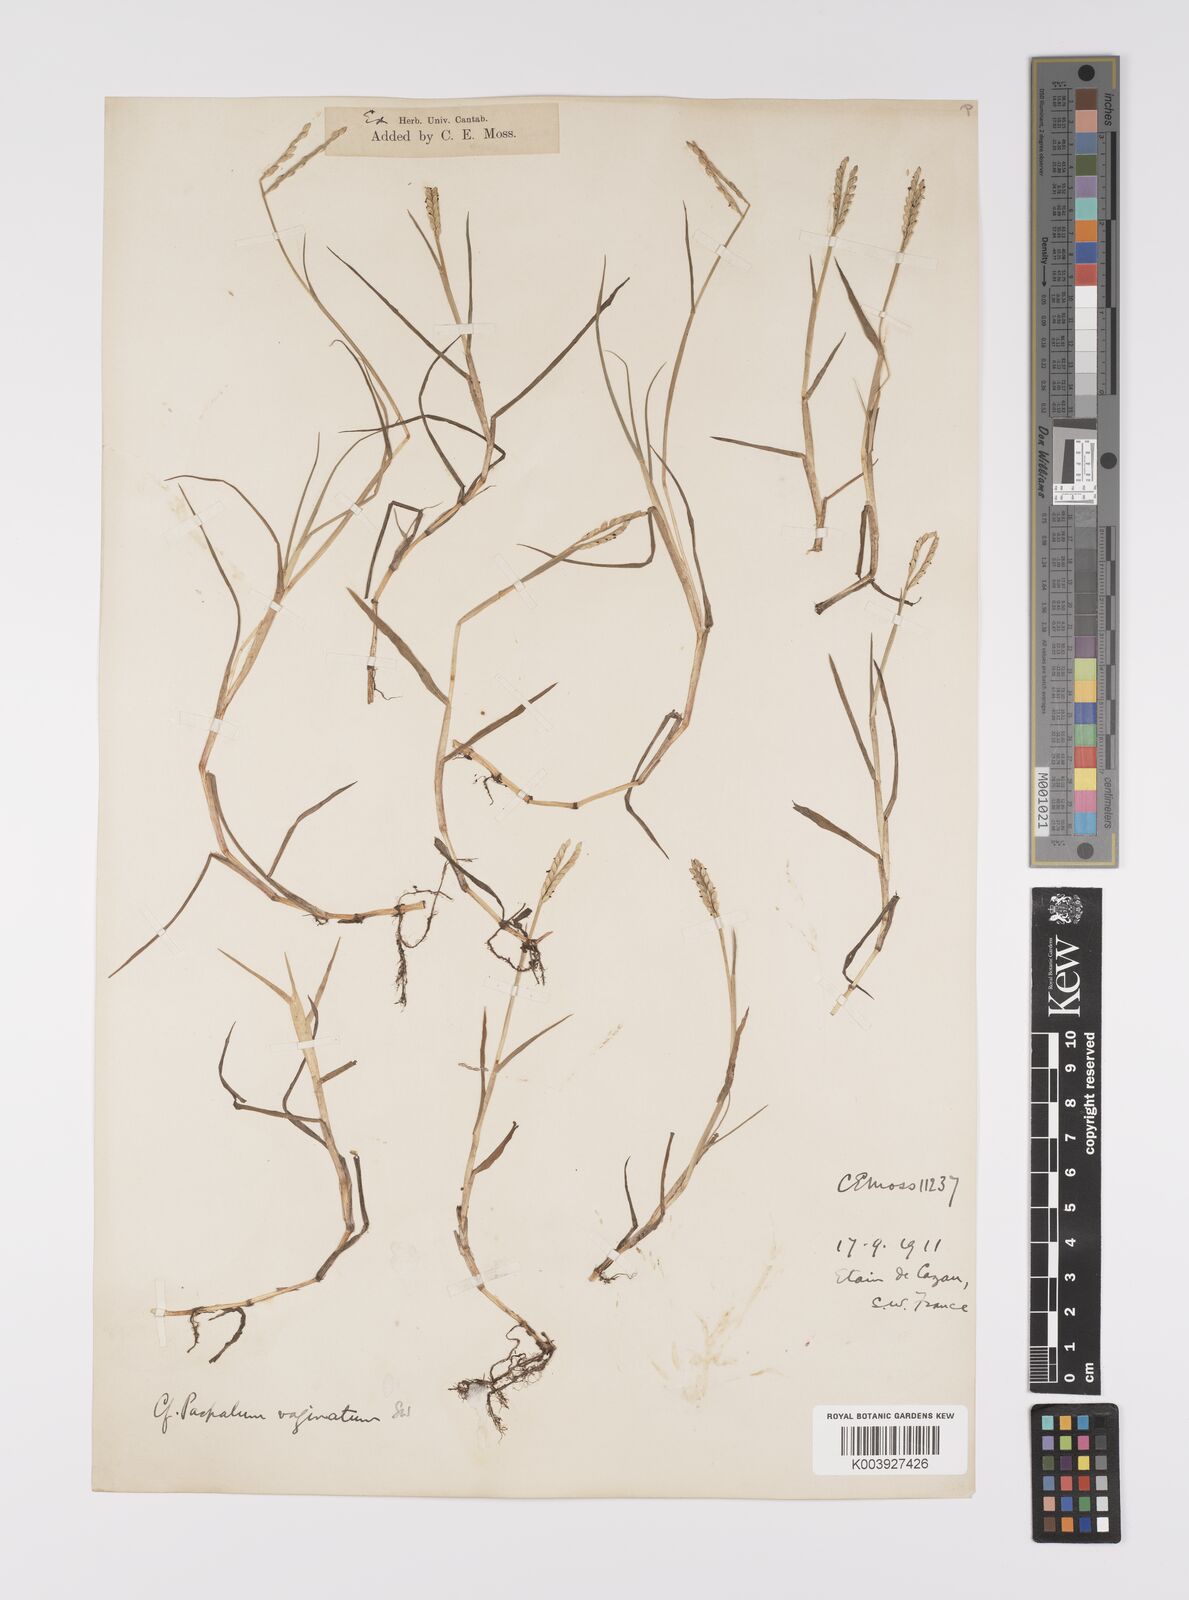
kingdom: Plantae
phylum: Tracheophyta
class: Liliopsida
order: Poales
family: Poaceae
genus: Paspalum
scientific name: Paspalum distichum
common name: Knotgrass
